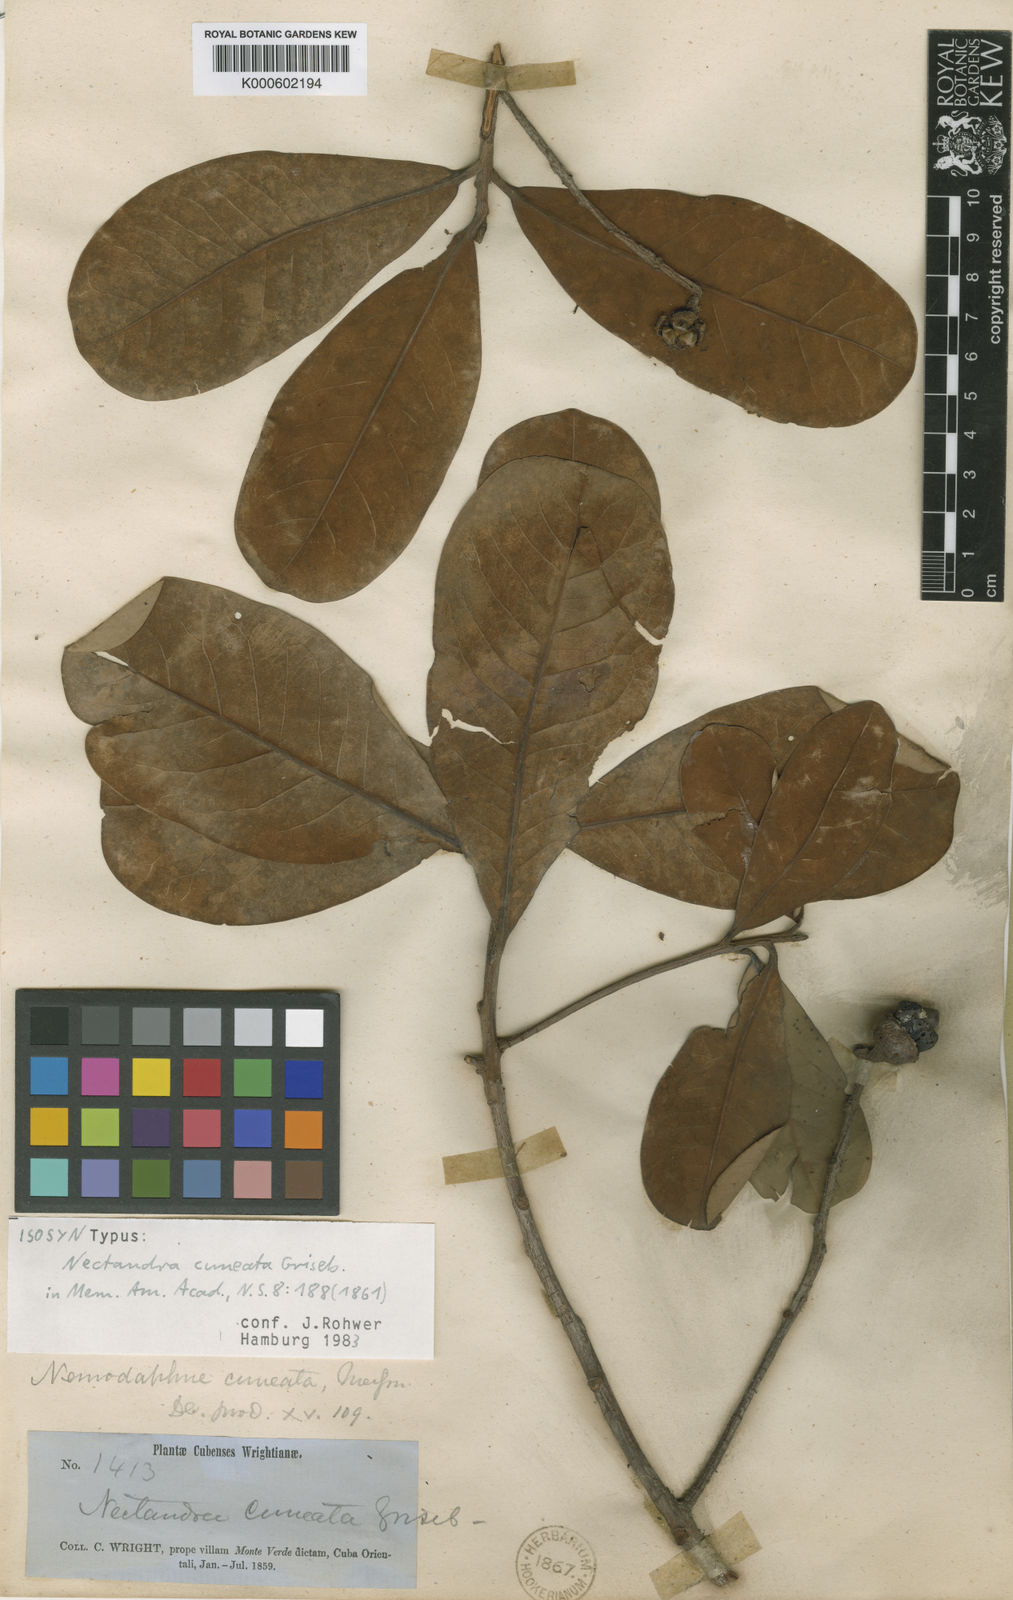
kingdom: Plantae
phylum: Tracheophyta
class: Magnoliopsida
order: Laurales
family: Lauraceae
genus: Ocotea
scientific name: Ocotea
